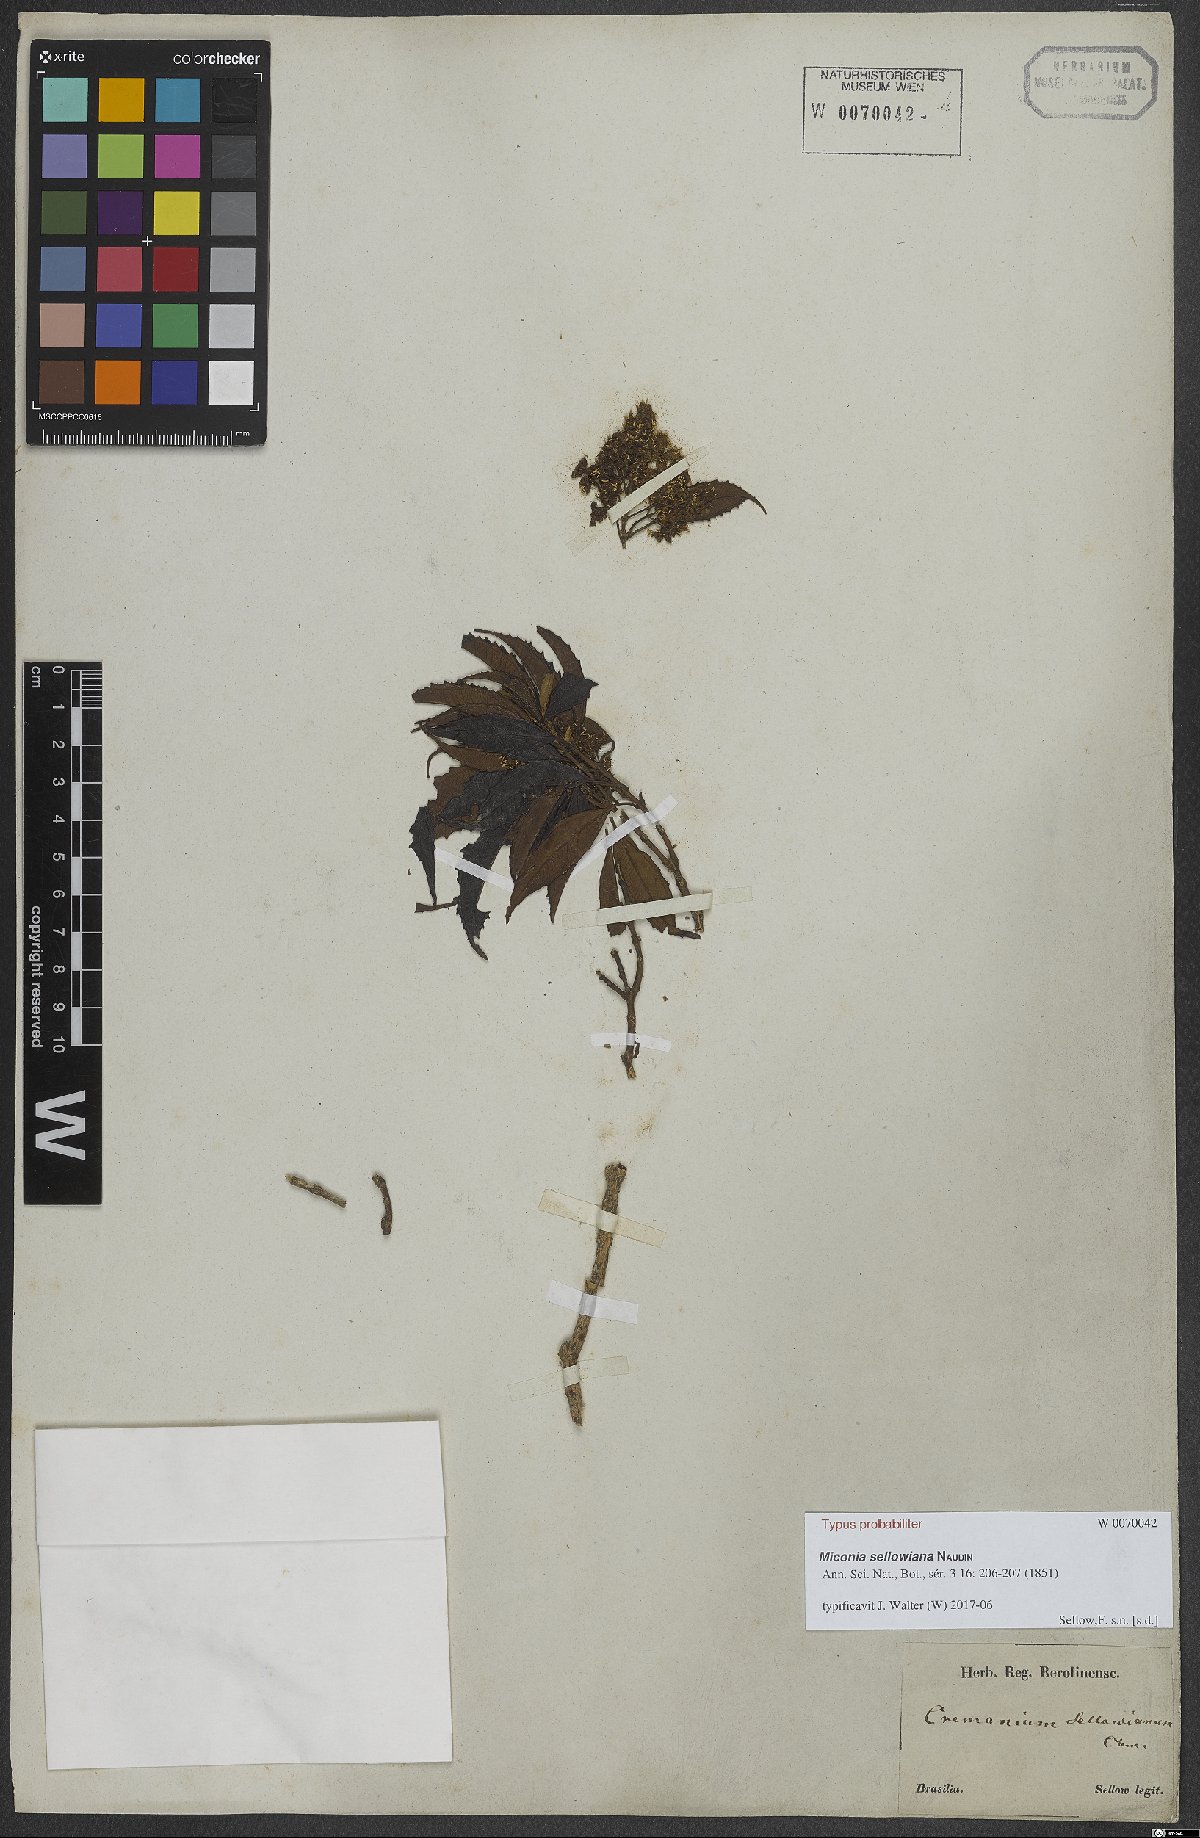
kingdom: Plantae
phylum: Tracheophyta
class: Magnoliopsida
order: Myrtales
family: Melastomataceae
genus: Miconia
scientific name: Miconia sellowiana
